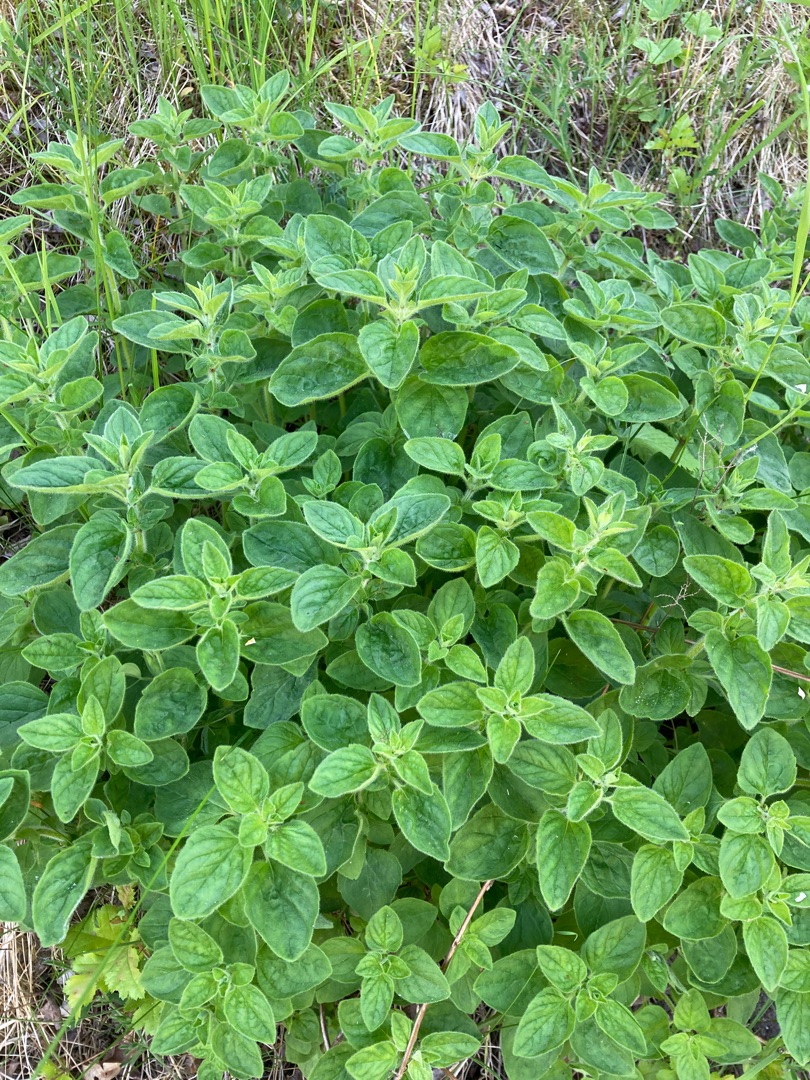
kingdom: Plantae
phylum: Tracheophyta
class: Magnoliopsida
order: Lamiales
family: Lamiaceae
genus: Origanum
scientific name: Origanum vulgare
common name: Merian
